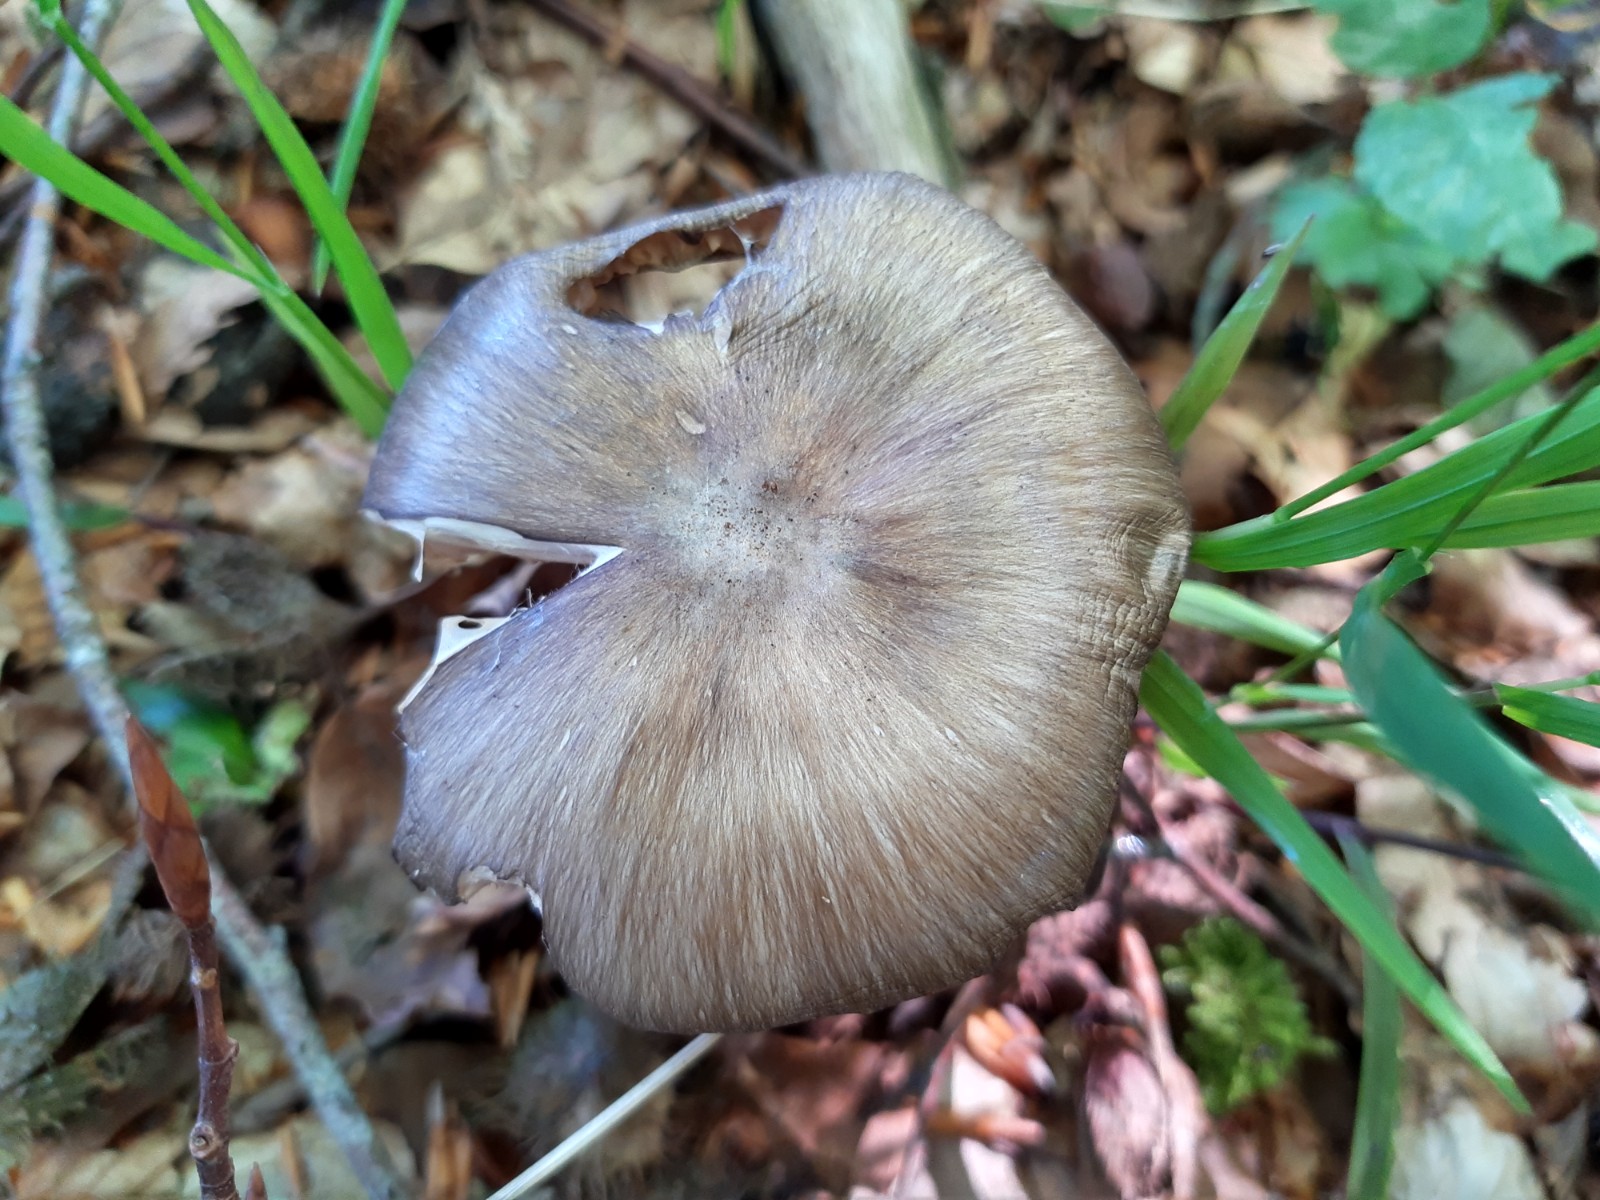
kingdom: Fungi
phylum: Basidiomycota
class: Agaricomycetes
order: Agaricales
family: Tricholomataceae
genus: Megacollybia
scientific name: Megacollybia platyphylla
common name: bredbladet væbnerhat
